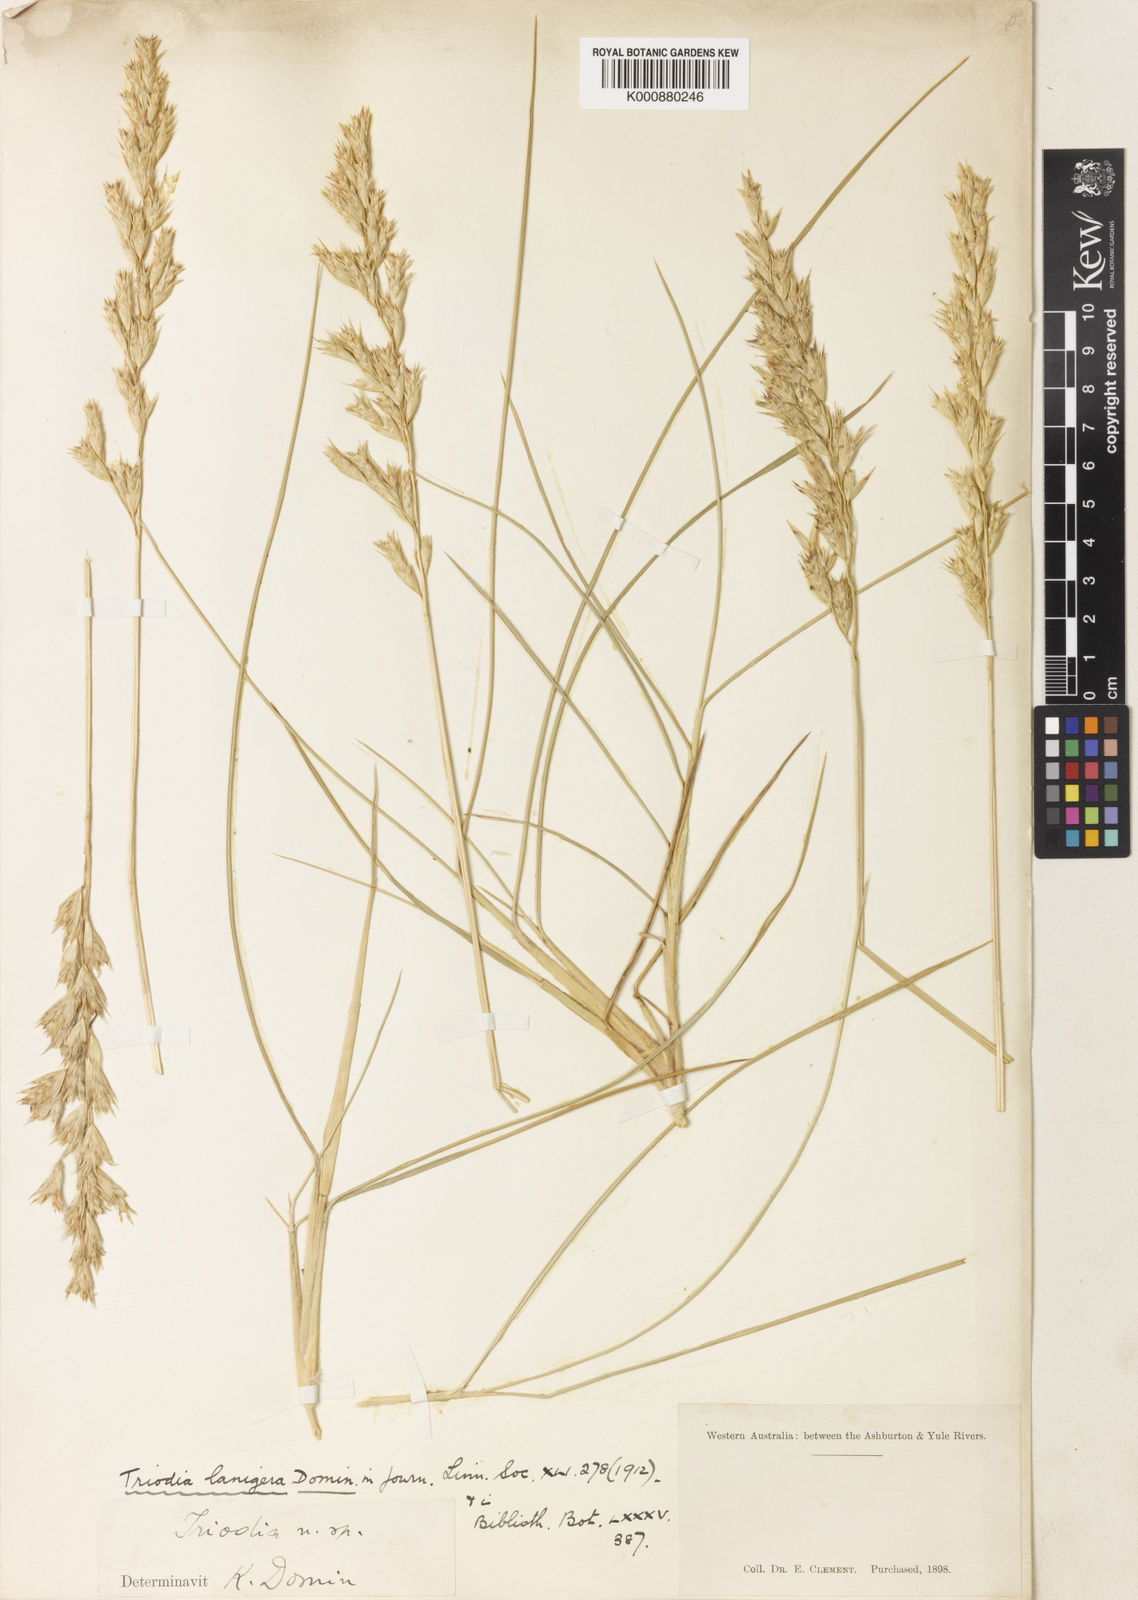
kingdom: Plantae
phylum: Tracheophyta
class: Liliopsida
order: Poales
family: Poaceae
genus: Triodia
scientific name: Triodia lanigera
